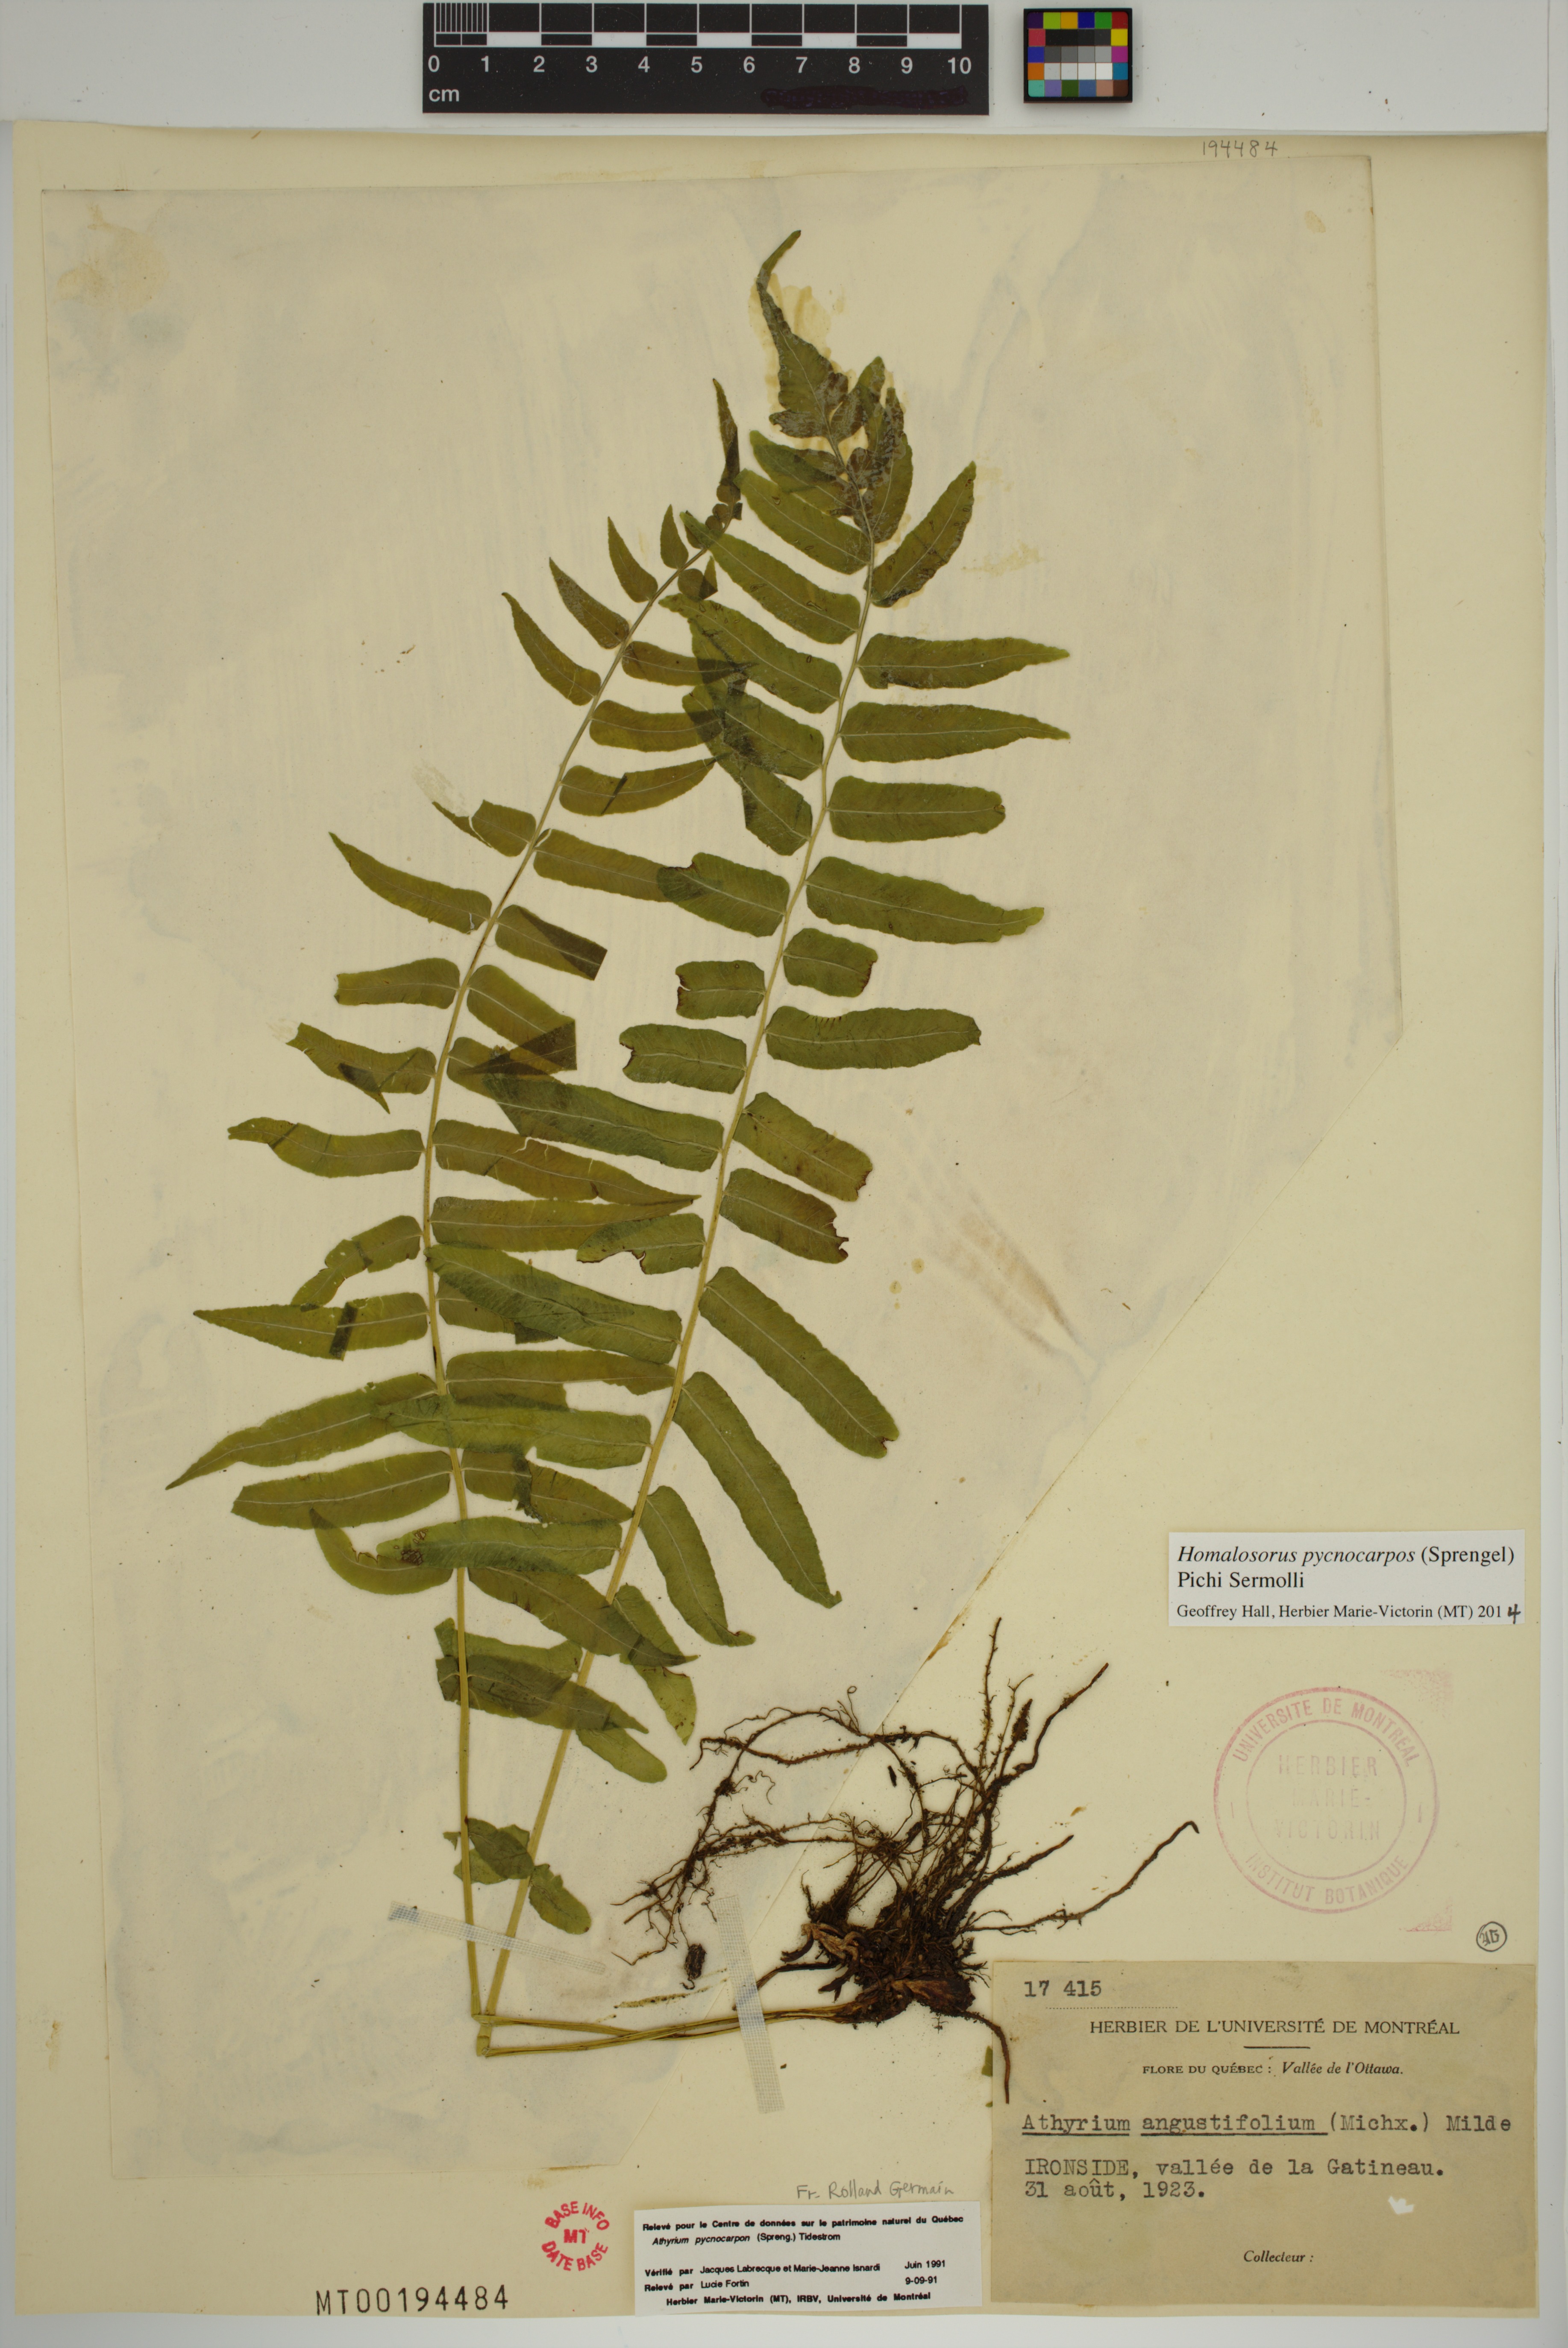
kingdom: Plantae
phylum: Tracheophyta
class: Polypodiopsida
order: Polypodiales
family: Diplaziopsidaceae
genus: Homalosorus
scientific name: Homalosorus pycnocarpos
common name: Glade fern
